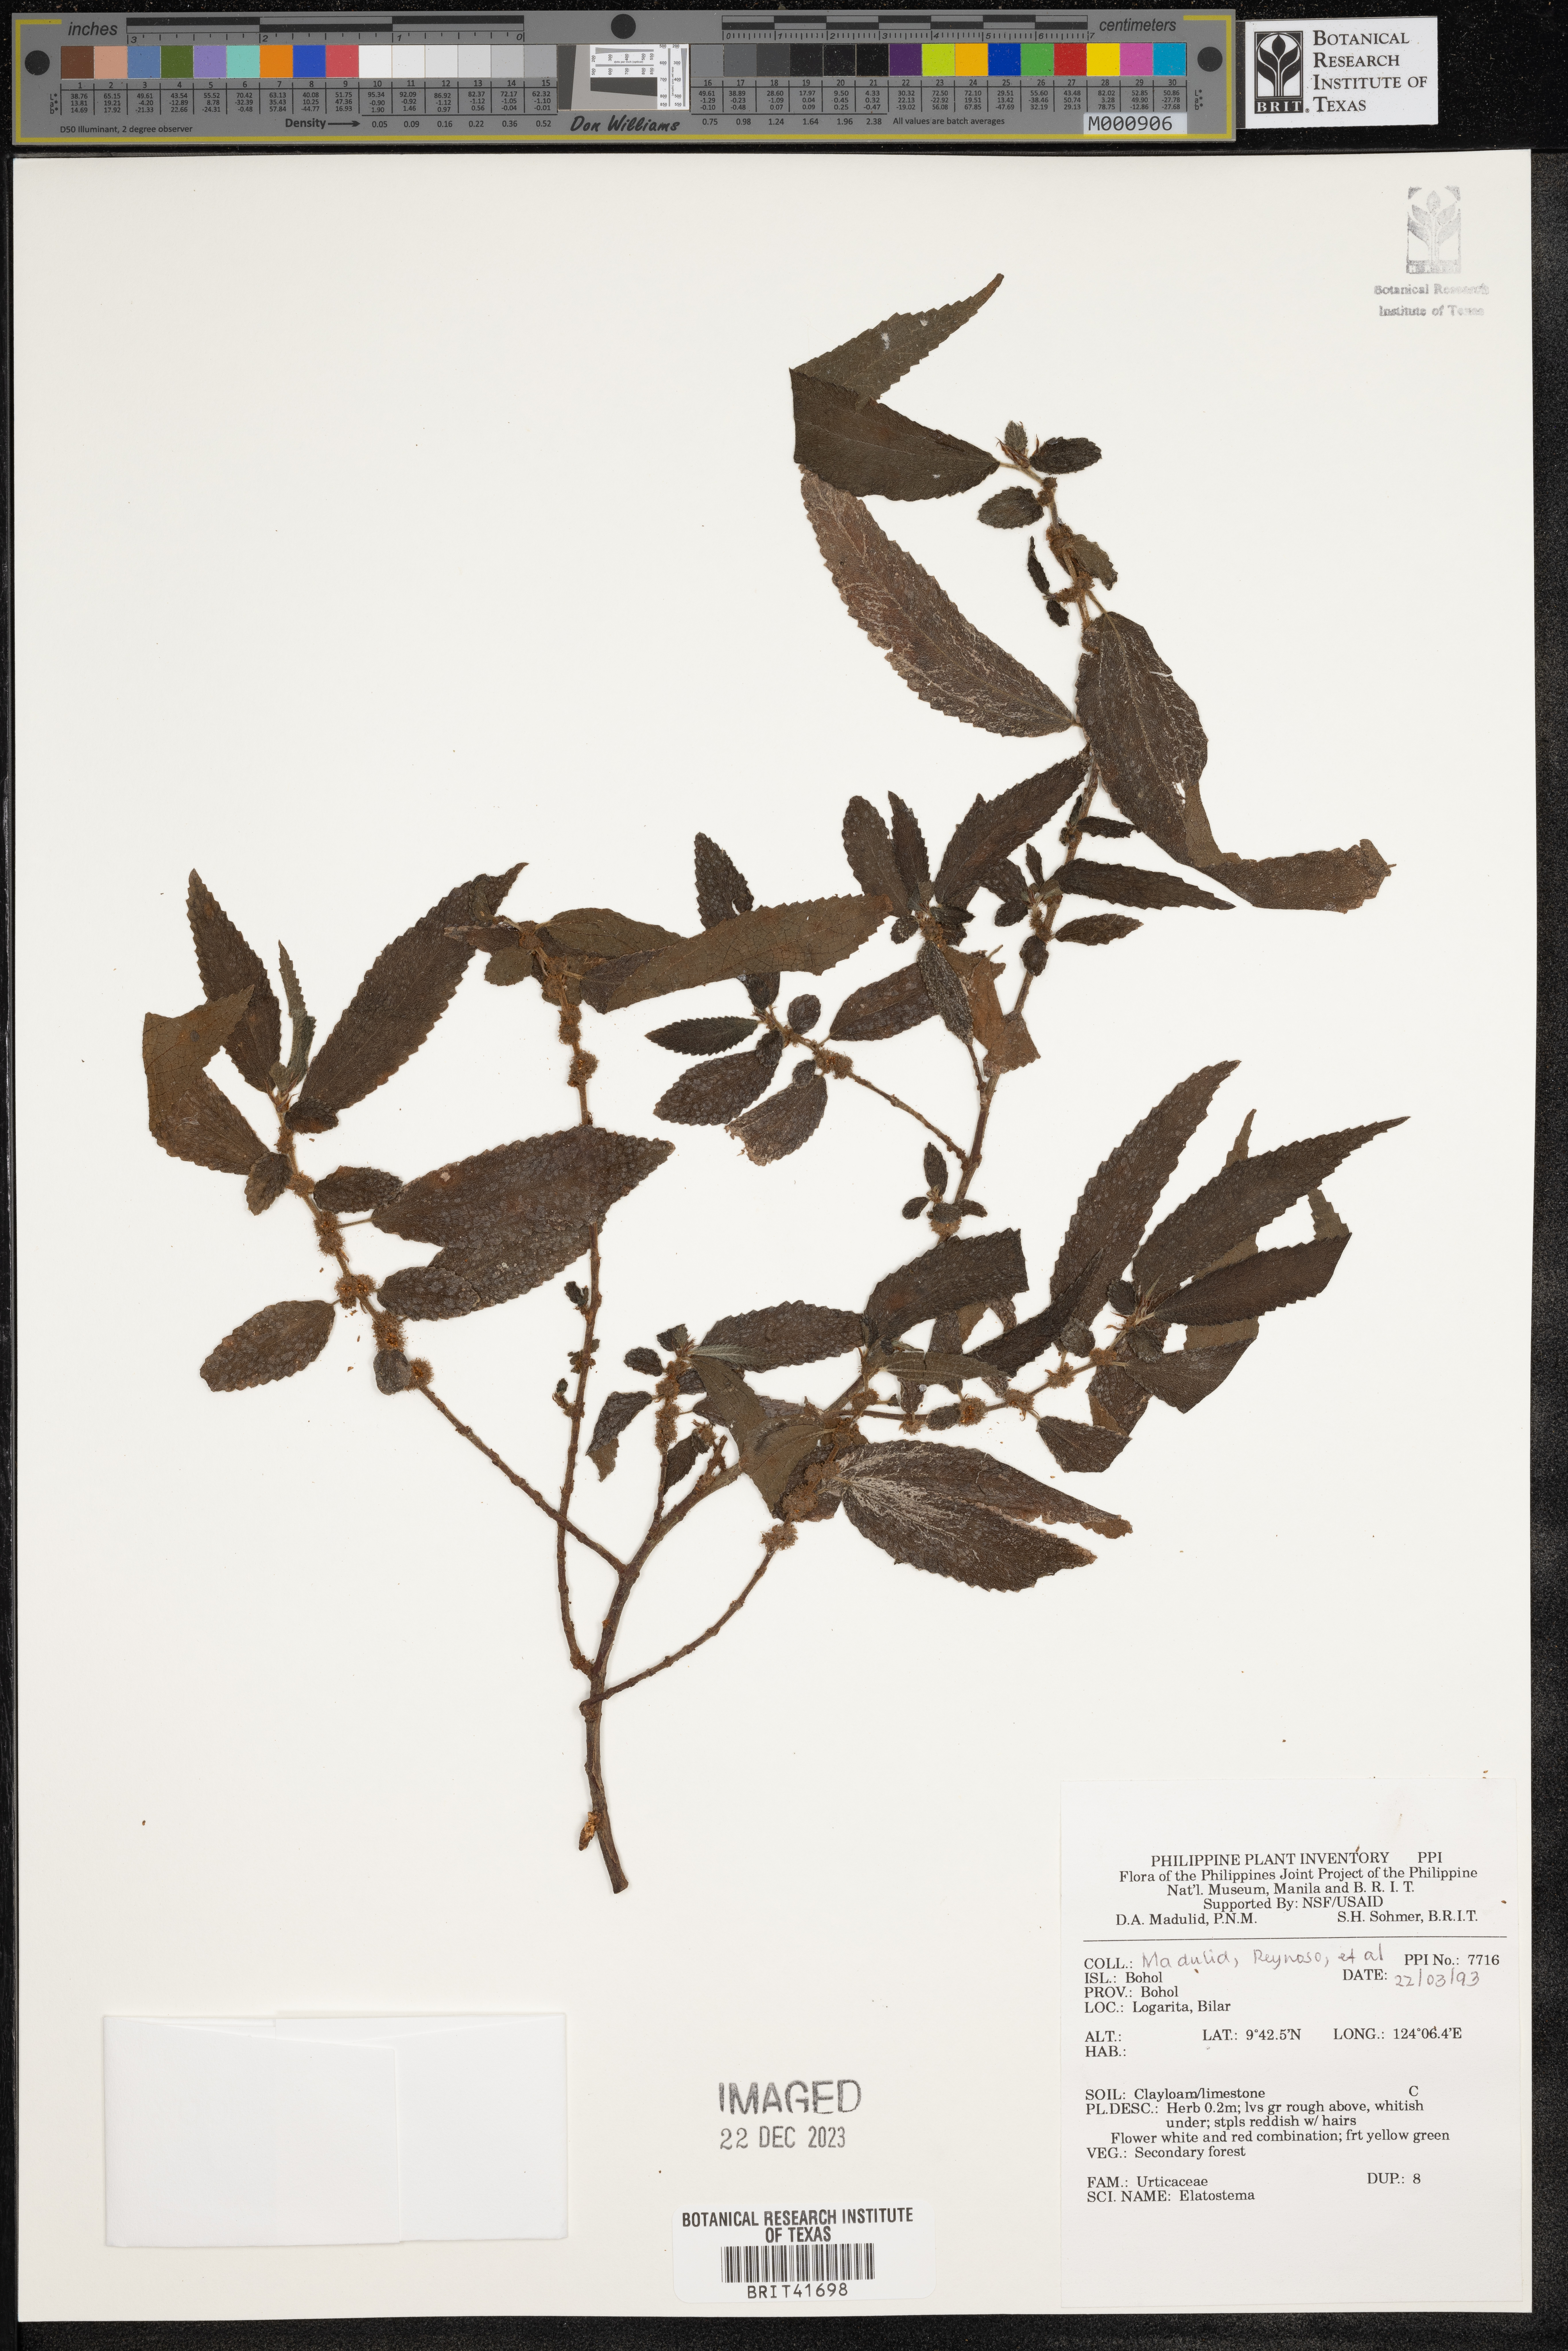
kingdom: Plantae
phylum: Tracheophyta
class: Magnoliopsida
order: Rosales
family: Urticaceae
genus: Elatostema
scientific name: Elatostema
